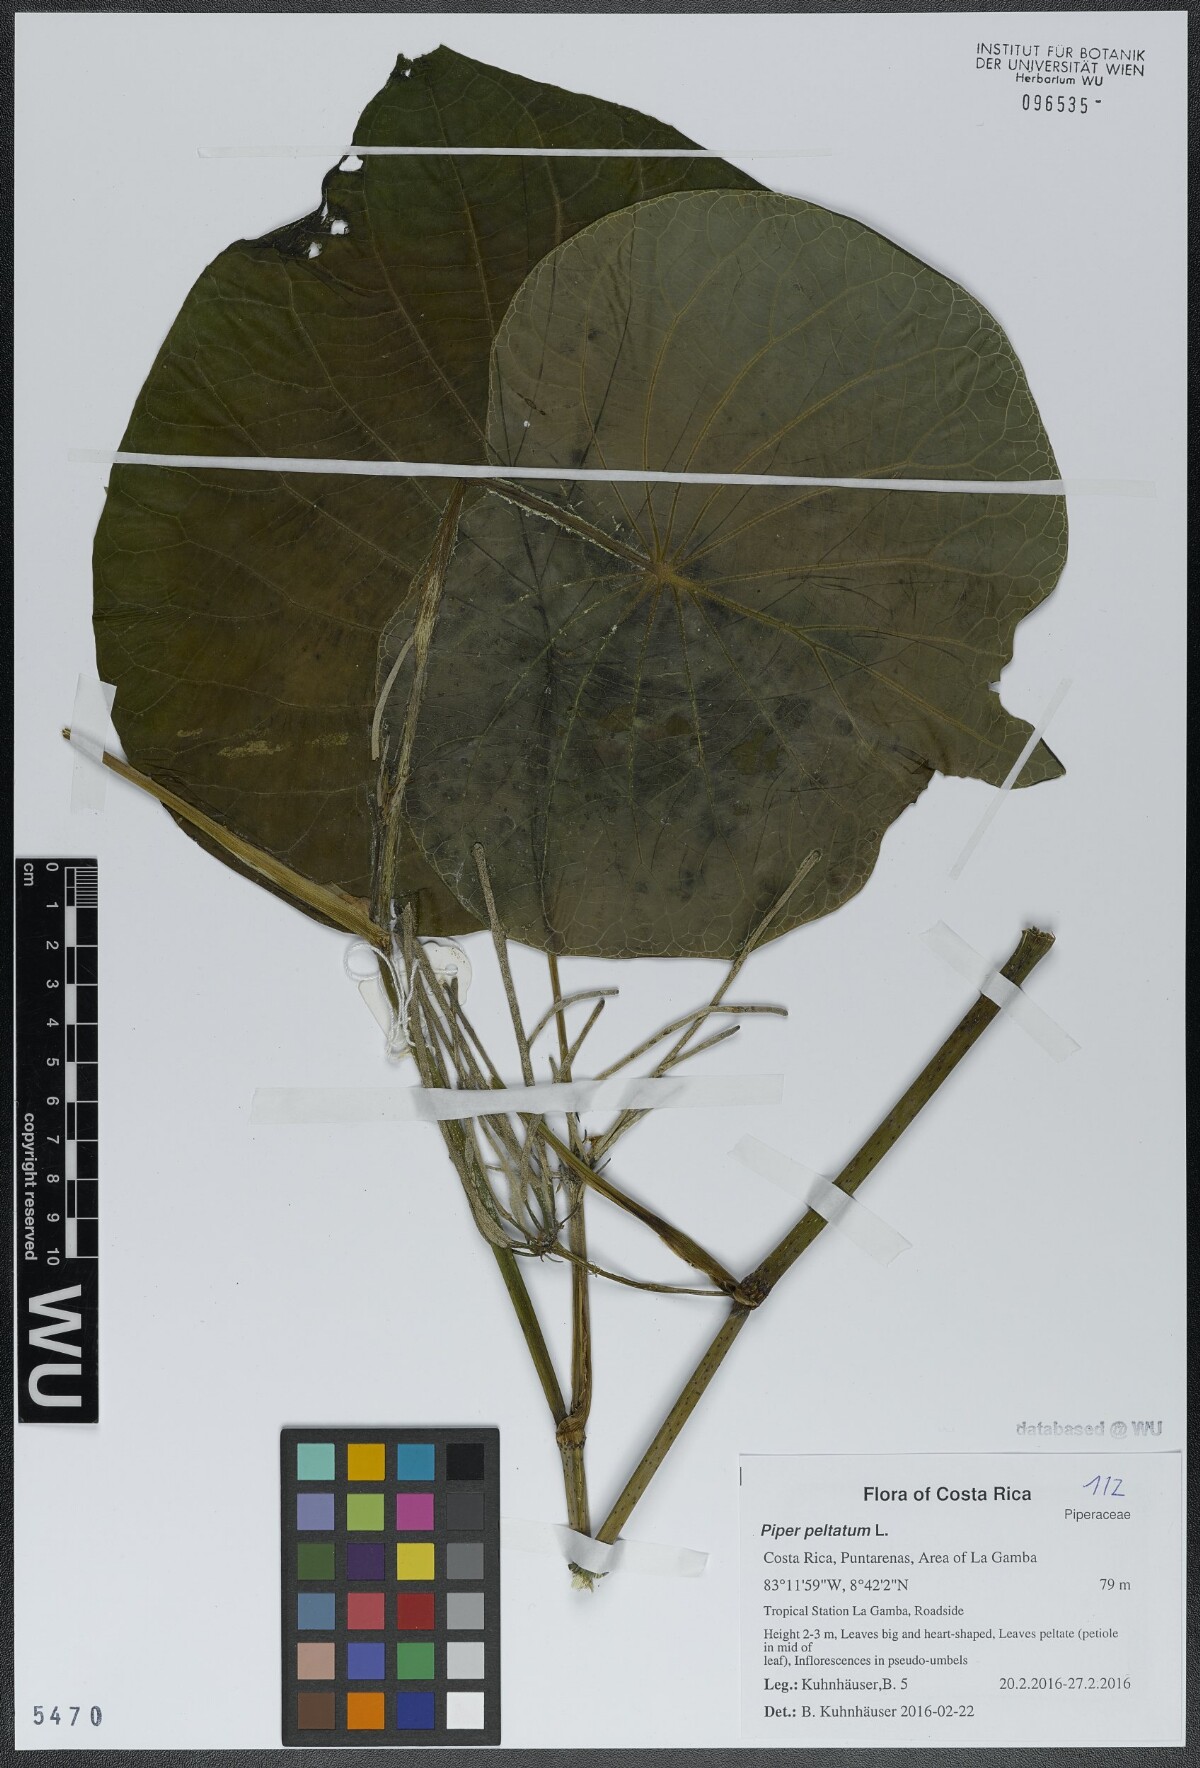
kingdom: Plantae
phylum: Tracheophyta
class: Magnoliopsida
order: Piperales
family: Piperaceae
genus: Piper
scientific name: Piper peltatum
